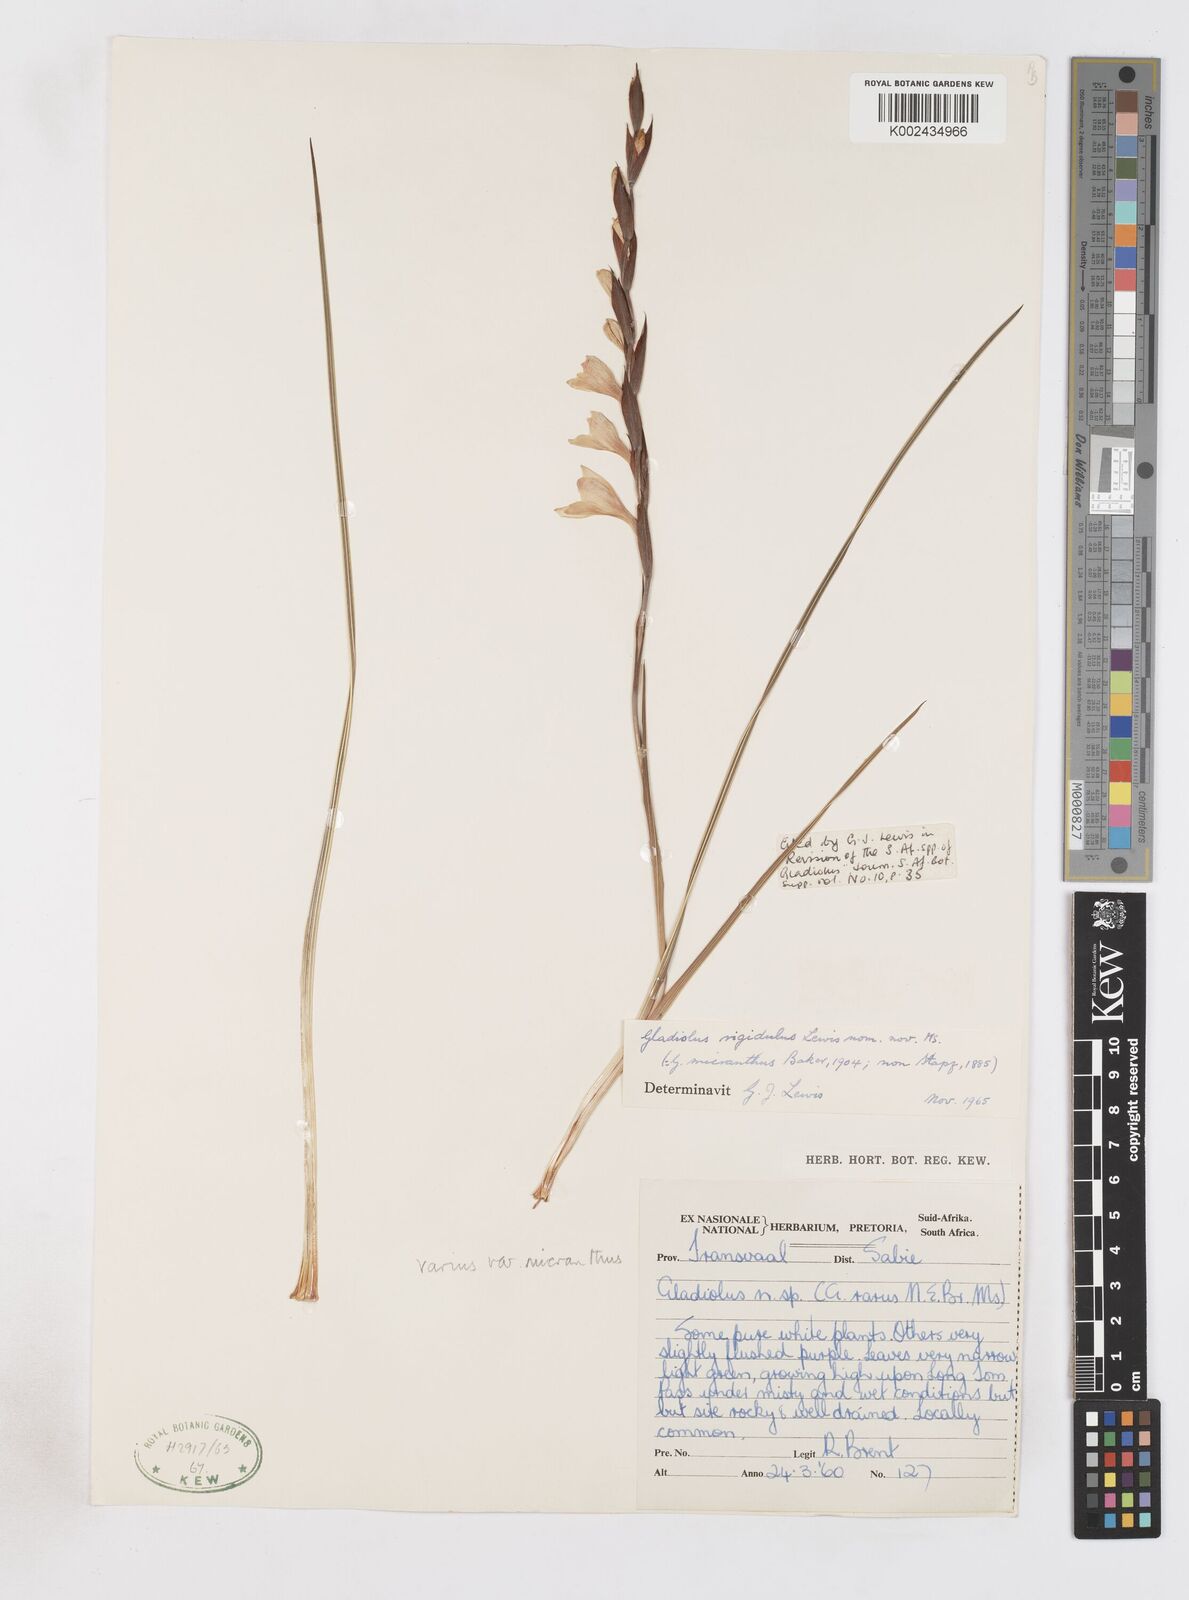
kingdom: Plantae
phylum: Tracheophyta
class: Liliopsida
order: Asparagales
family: Iridaceae
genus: Gladiolus
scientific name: Gladiolus ferrugineus
